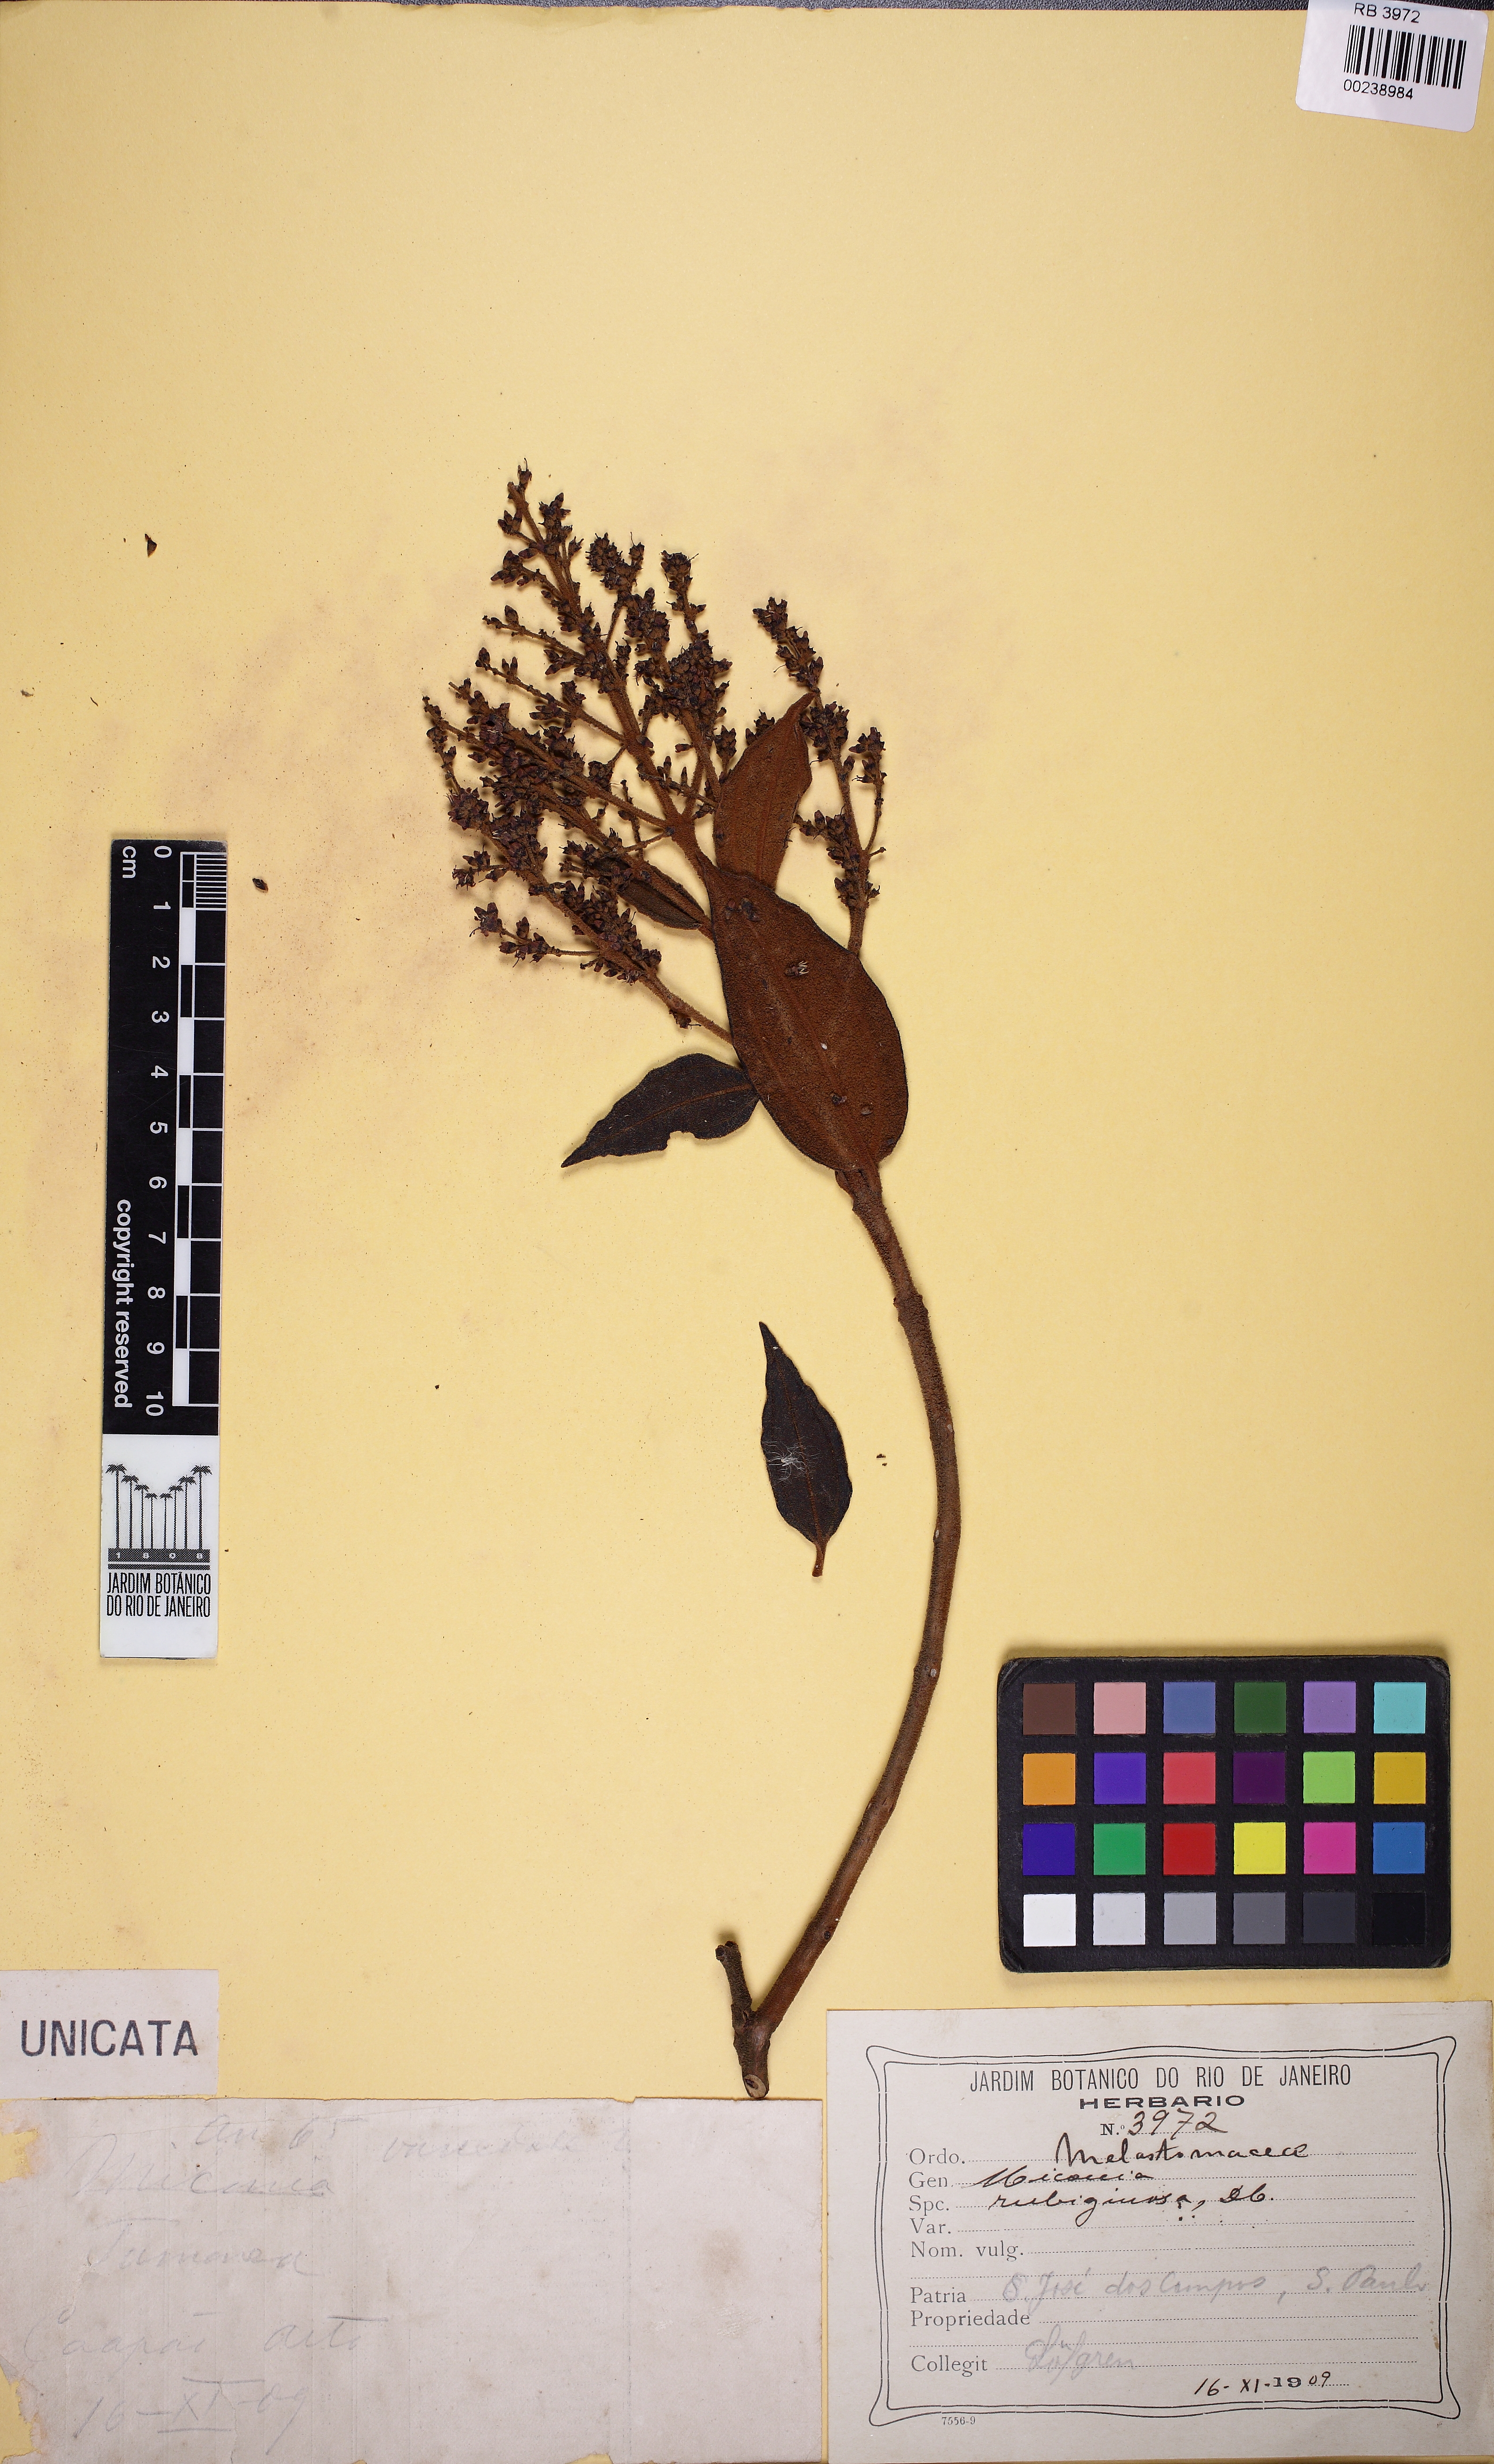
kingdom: Plantae
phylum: Tracheophyta
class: Magnoliopsida
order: Myrtales
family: Melastomataceae
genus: Miconia
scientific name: Miconia rubiginosa
